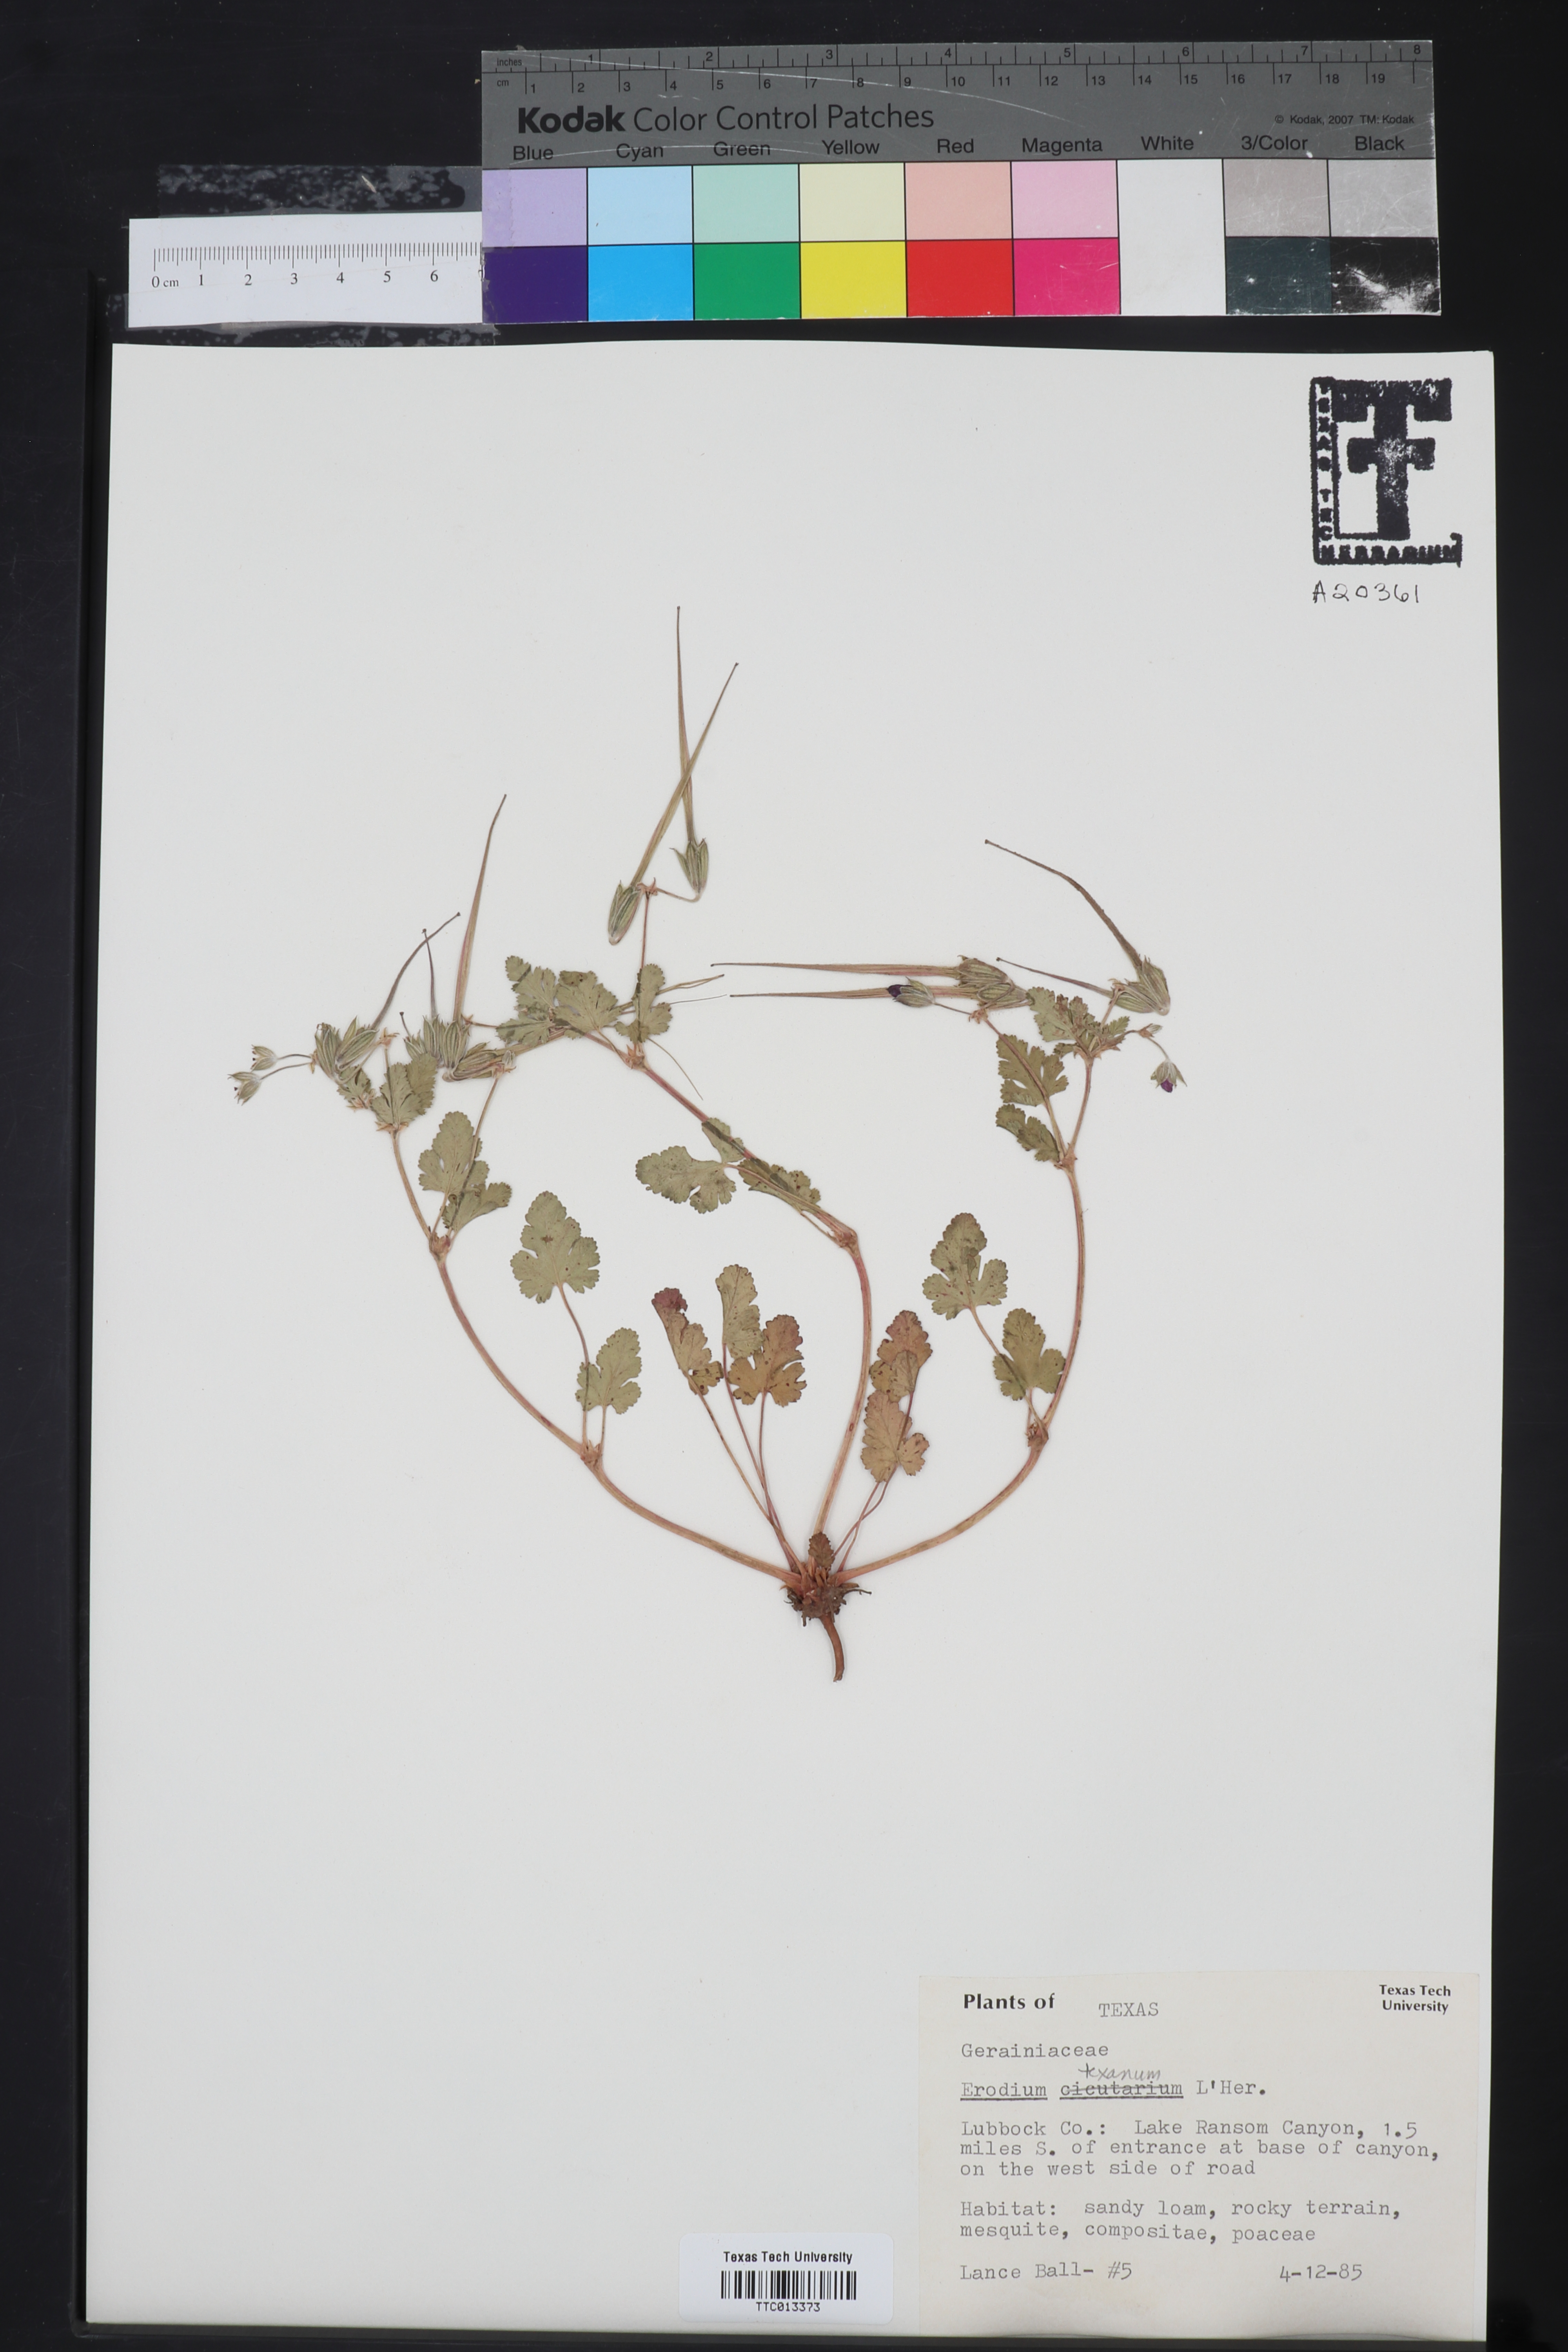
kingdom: Plantae
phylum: Tracheophyta
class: Magnoliopsida
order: Geraniales
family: Geraniaceae
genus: Erodium
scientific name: Erodium texanum
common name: Texas stork's-bill
